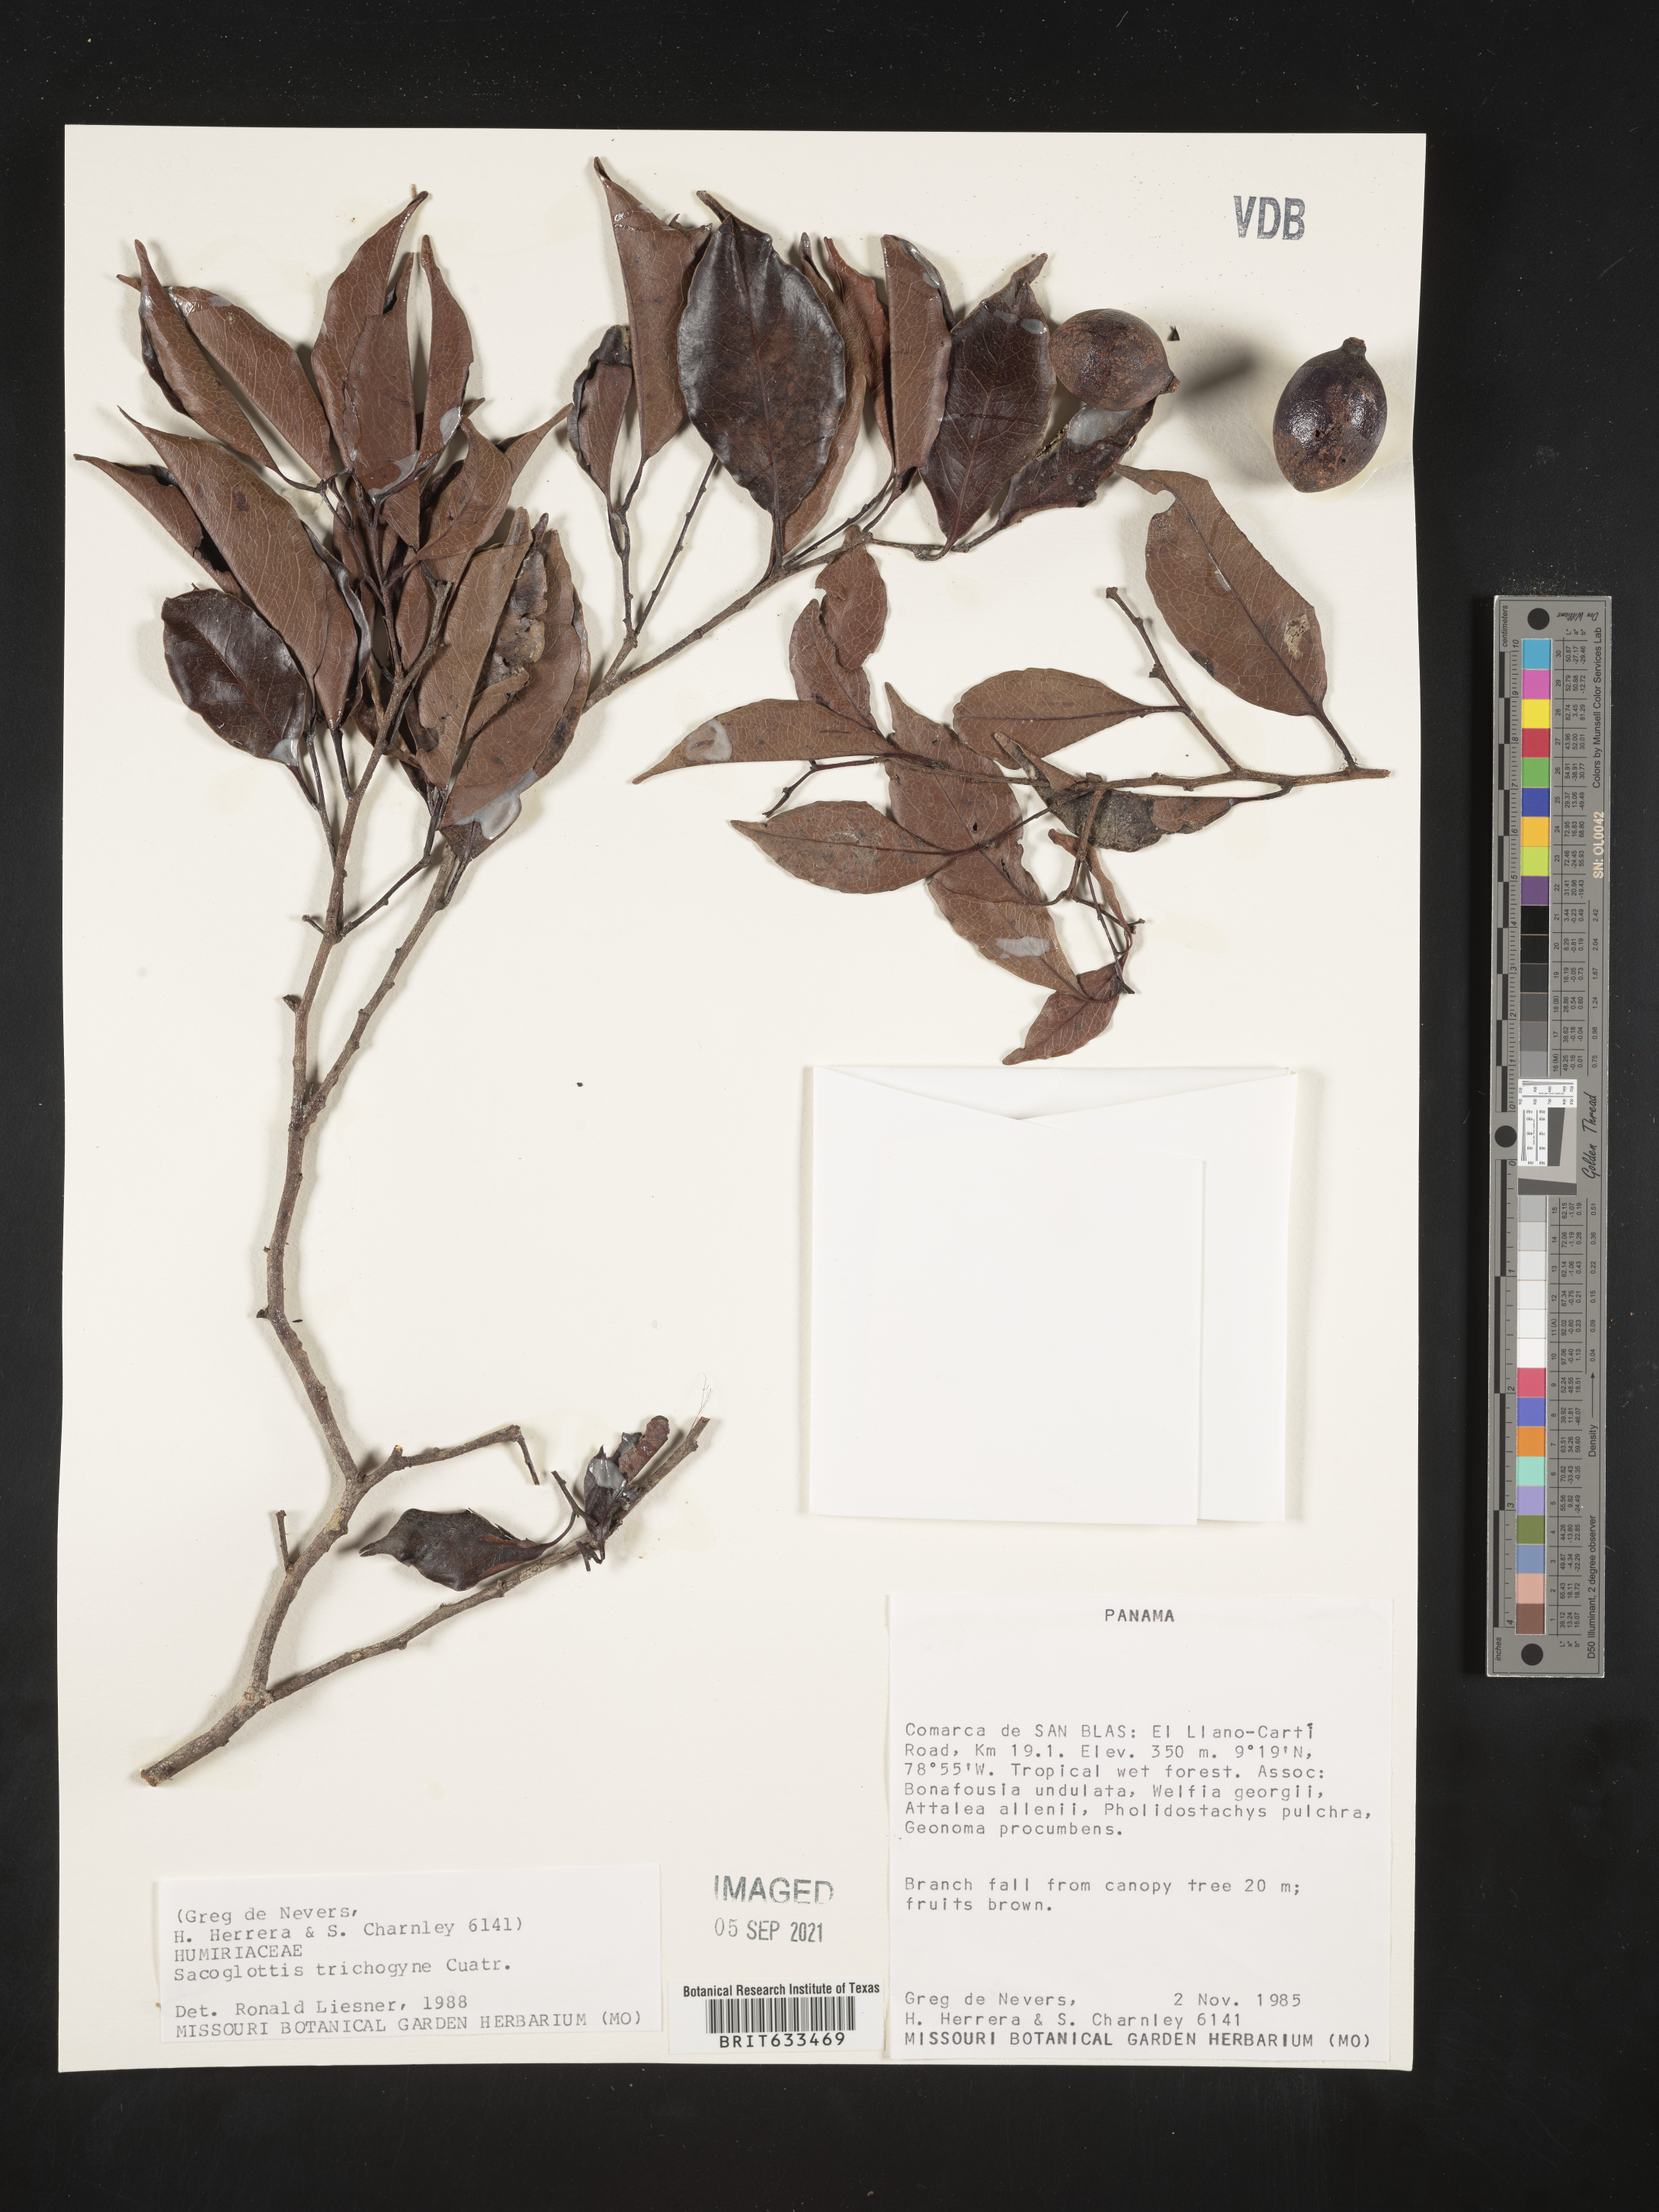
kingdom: Plantae
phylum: Tracheophyta
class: Magnoliopsida
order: Malpighiales
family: Humiriaceae
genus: Sacoglottis
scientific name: Sacoglottis
